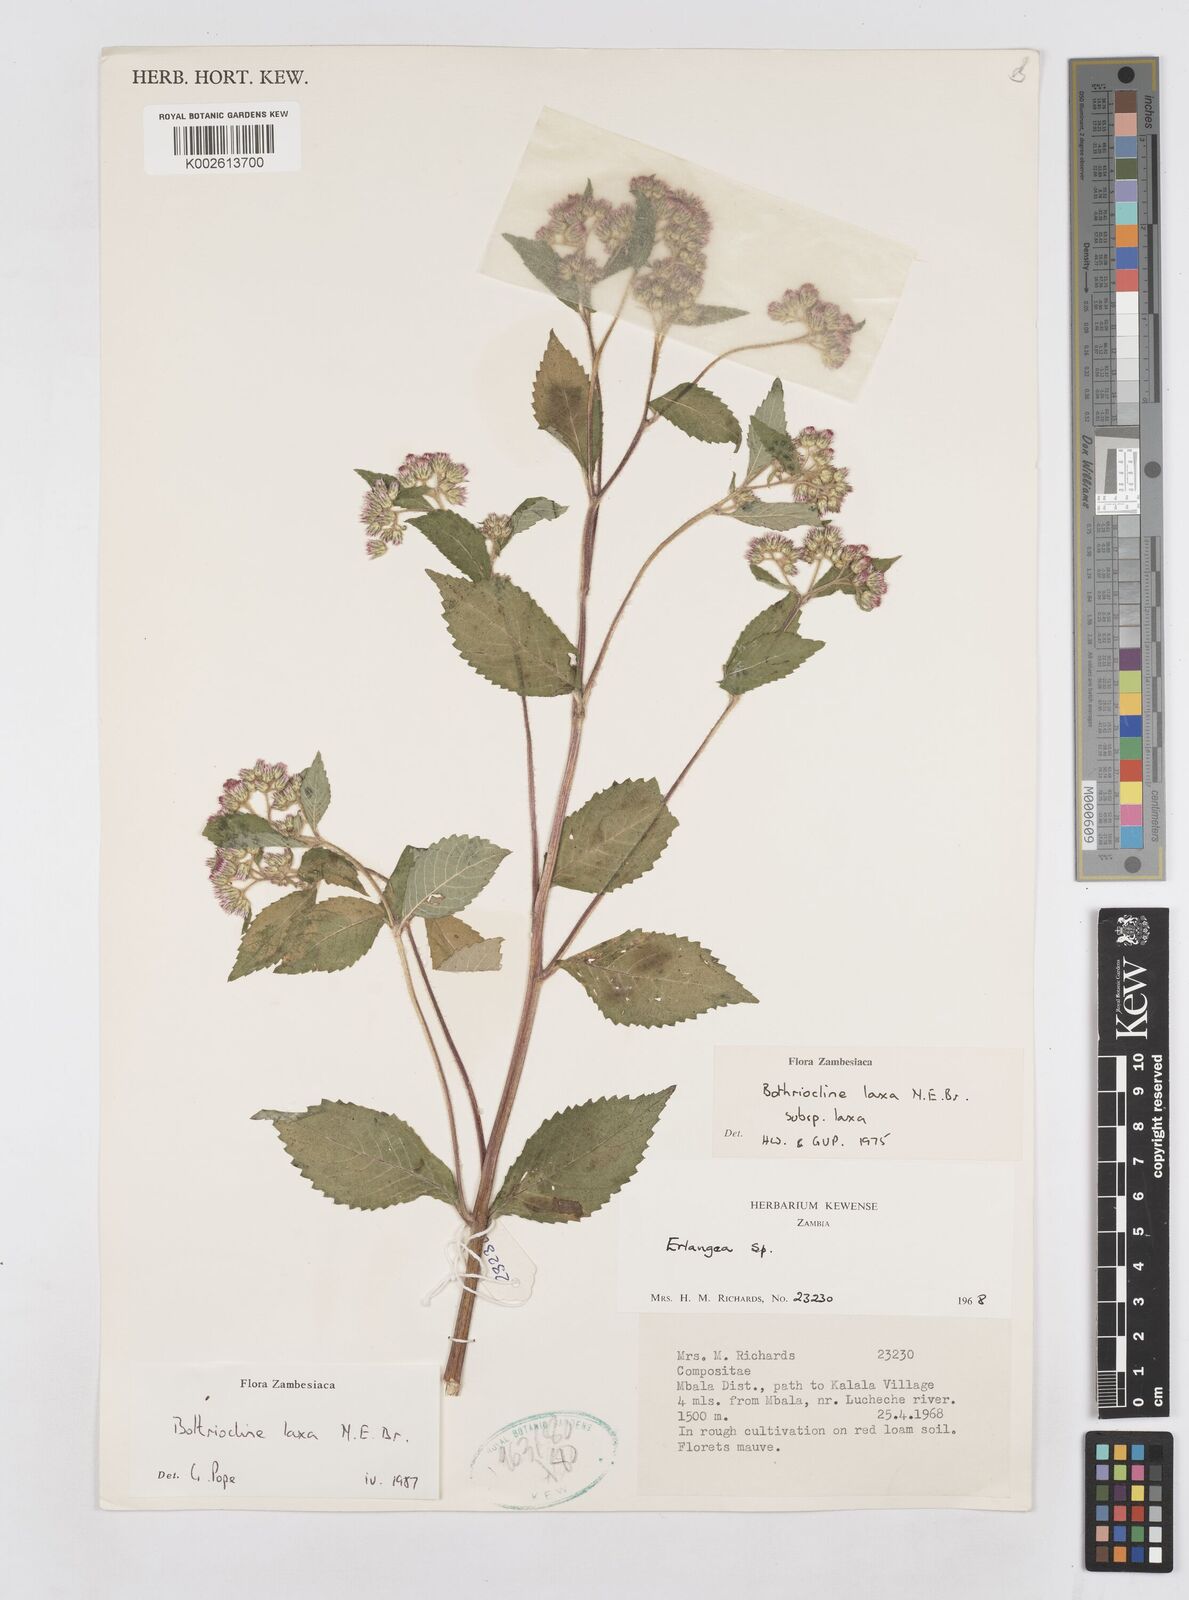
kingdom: Plantae
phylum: Tracheophyta
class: Magnoliopsida
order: Asterales
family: Asteraceae
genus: Bothriocline
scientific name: Bothriocline laxa
